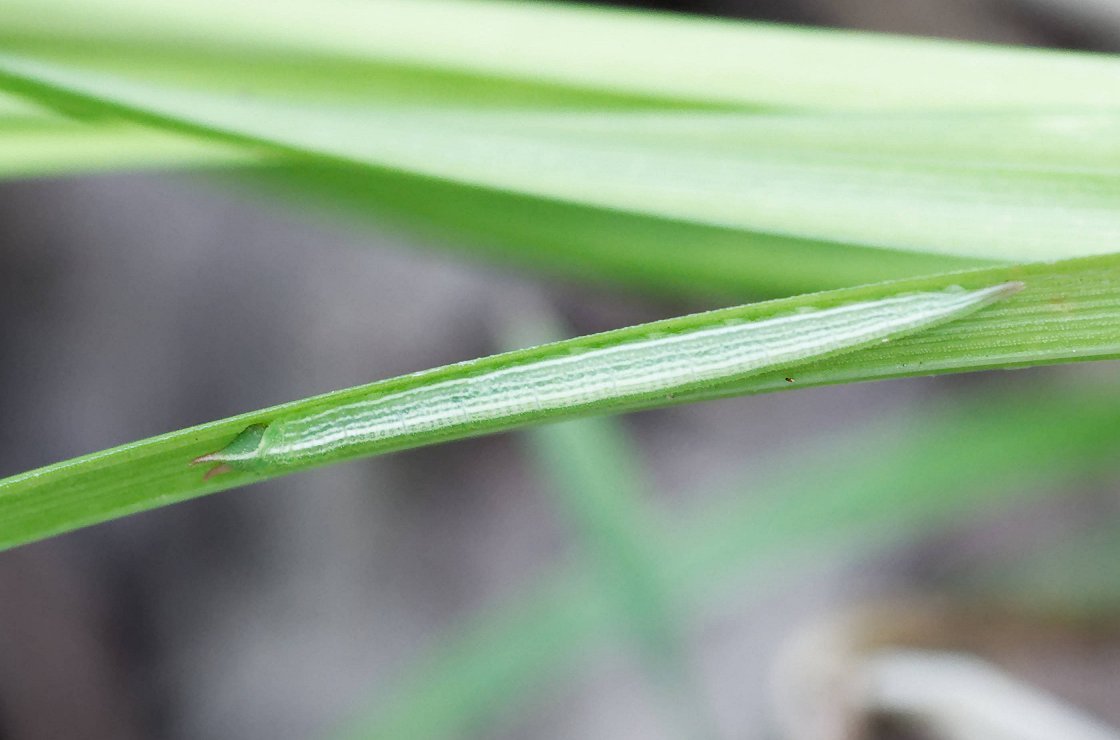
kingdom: Animalia
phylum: Arthropoda
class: Insecta
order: Lepidoptera
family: Nymphalidae
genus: Lethe
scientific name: Lethe eurydice
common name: Appalachian Eyed Brown
